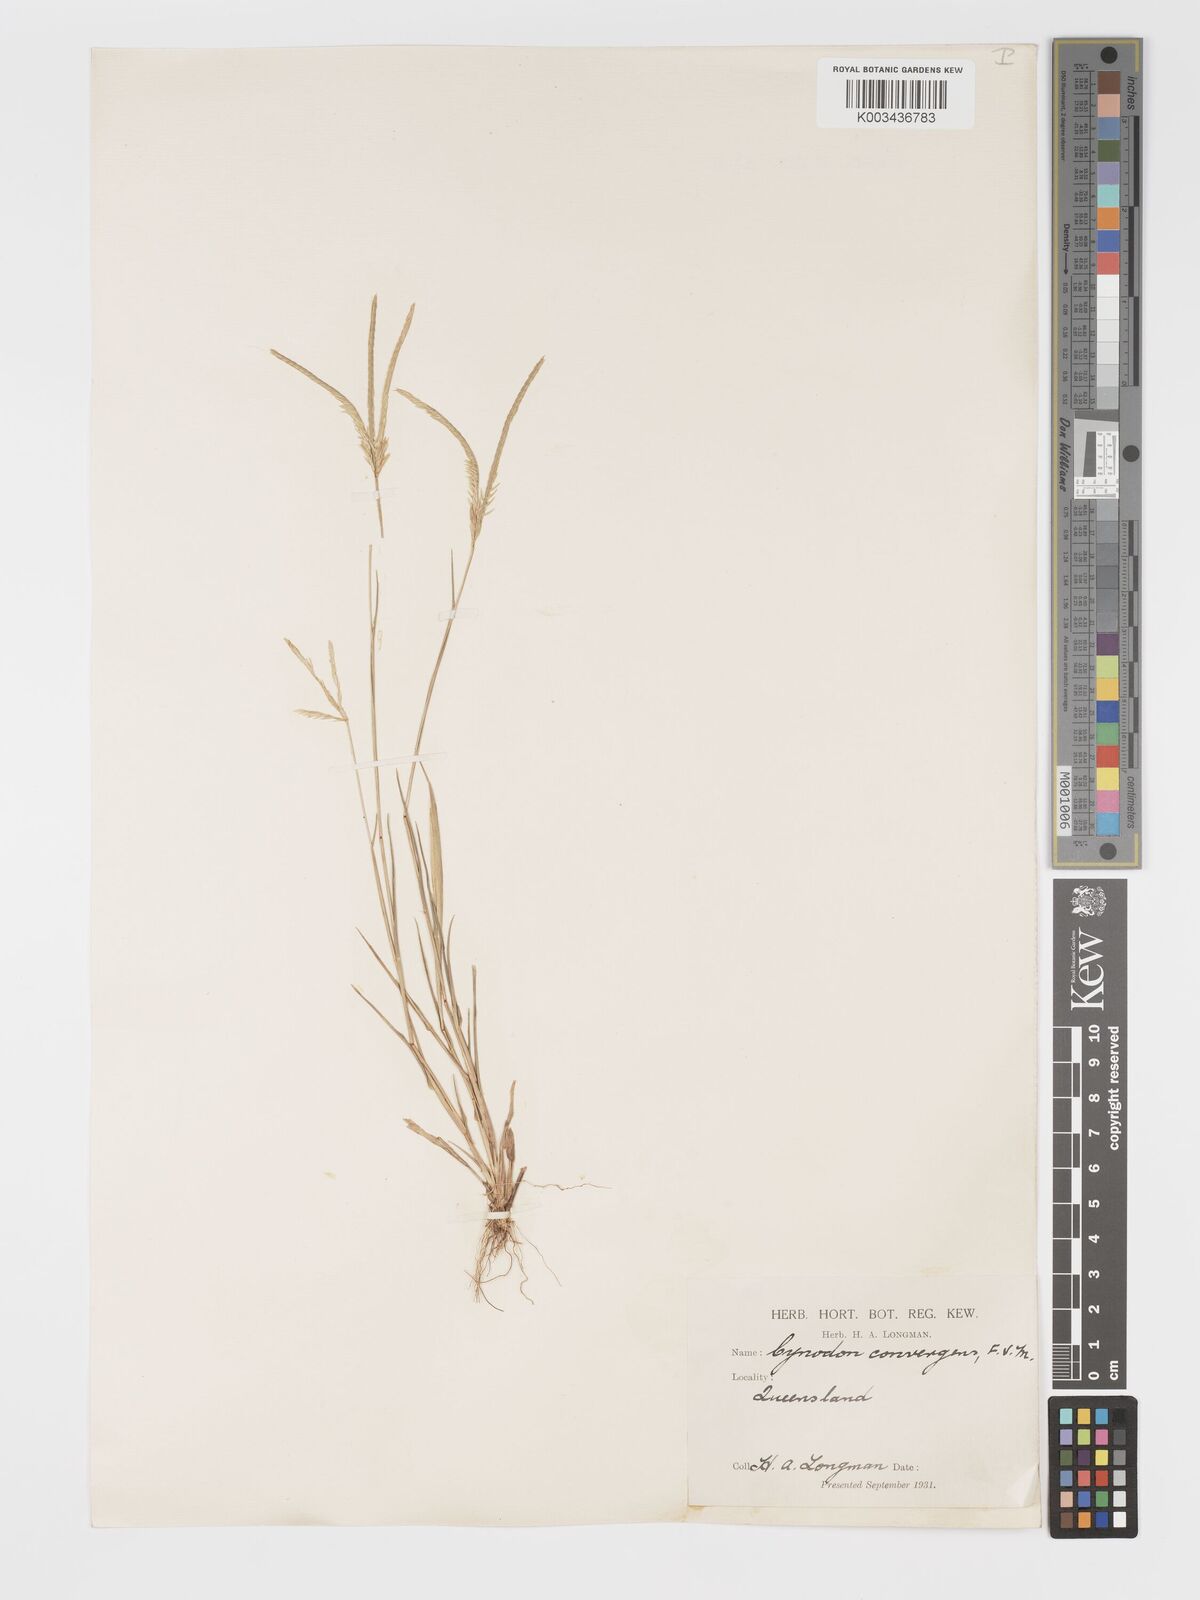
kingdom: Plantae
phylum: Tracheophyta
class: Liliopsida
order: Poales
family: Poaceae
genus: Cynodon
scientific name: Cynodon convergens
